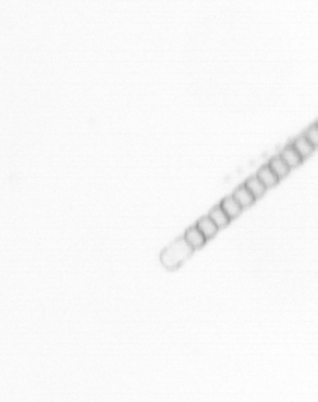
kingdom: Chromista
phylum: Ochrophyta
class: Bacillariophyceae
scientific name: Bacillariophyceae
